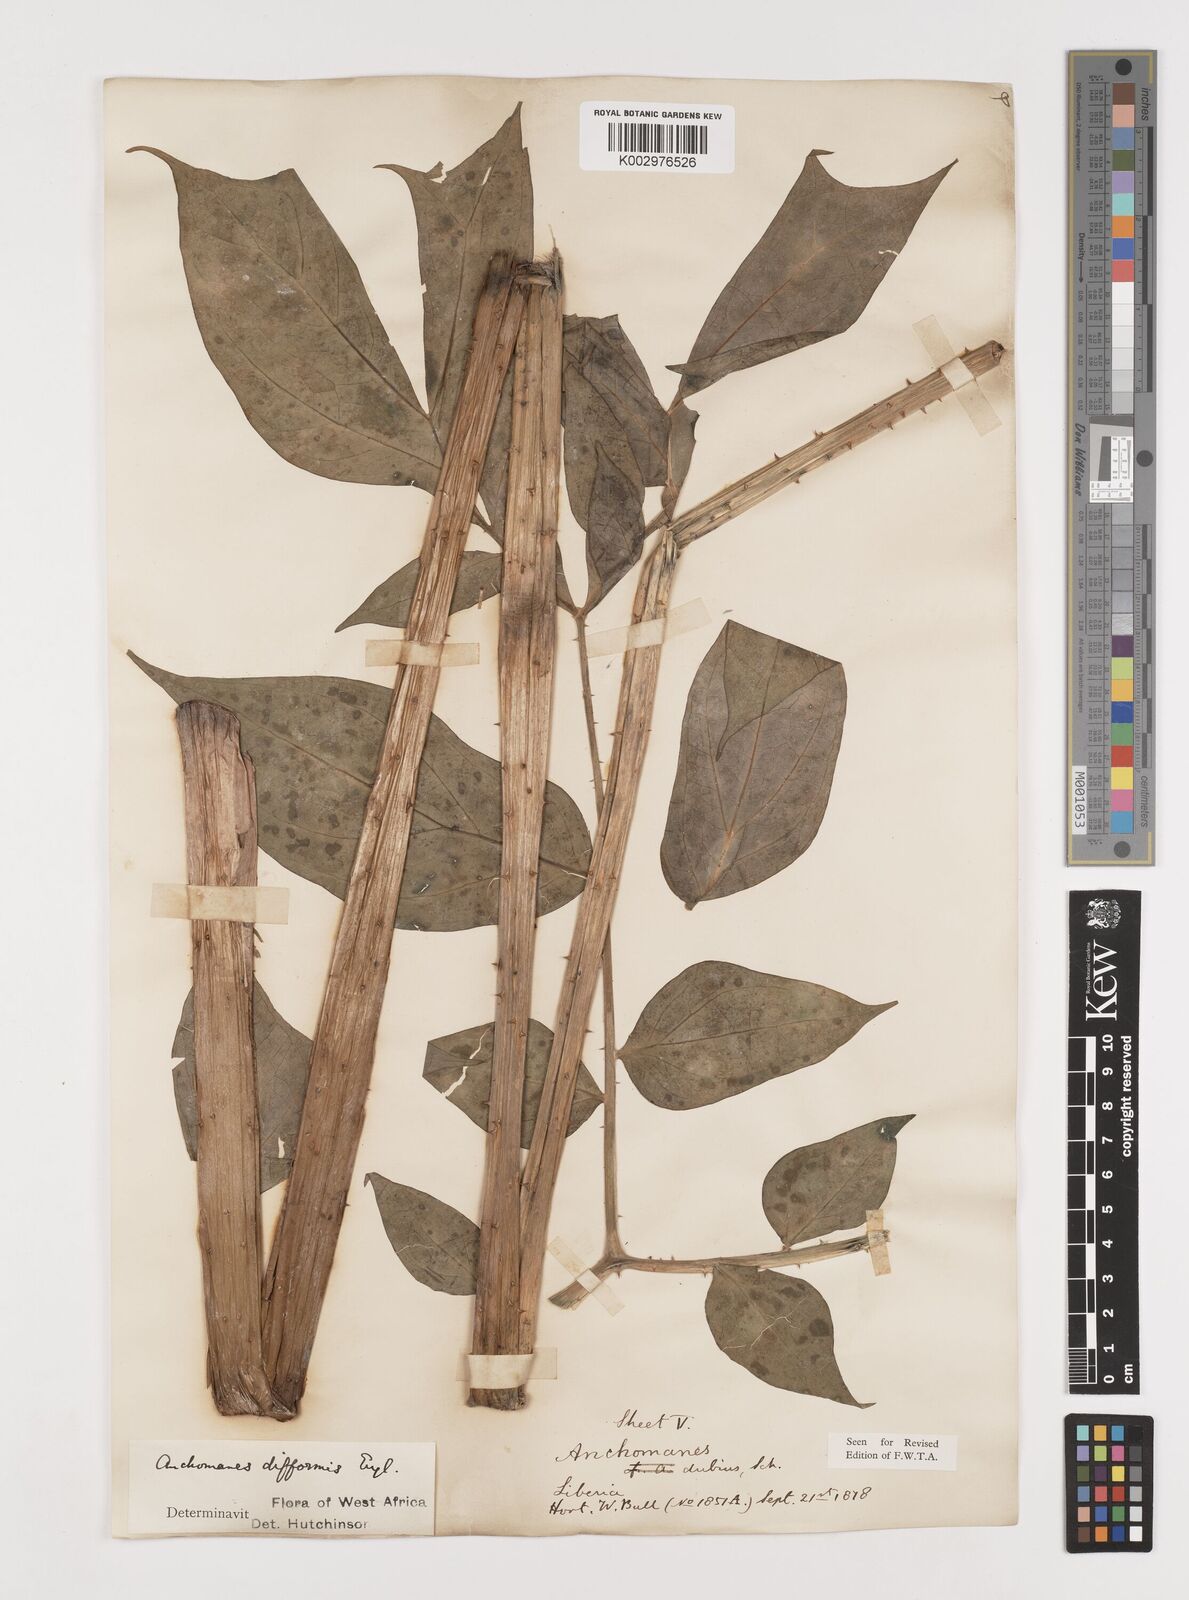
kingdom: Plantae
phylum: Tracheophyta
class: Liliopsida
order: Alismatales
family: Araceae
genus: Anchomanes
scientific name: Anchomanes difformis
